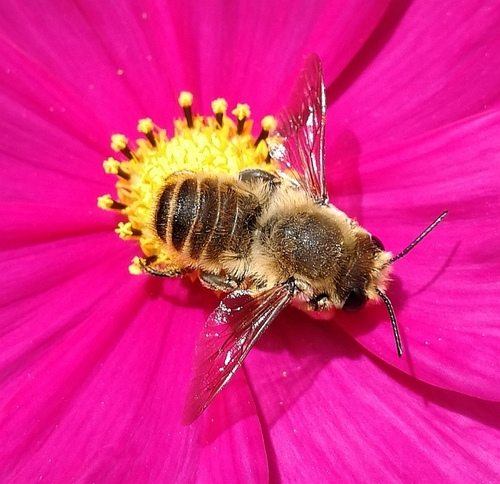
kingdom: Animalia
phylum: Arthropoda
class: Insecta
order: Hymenoptera
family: Megachilidae
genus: Megachile
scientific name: Megachile
